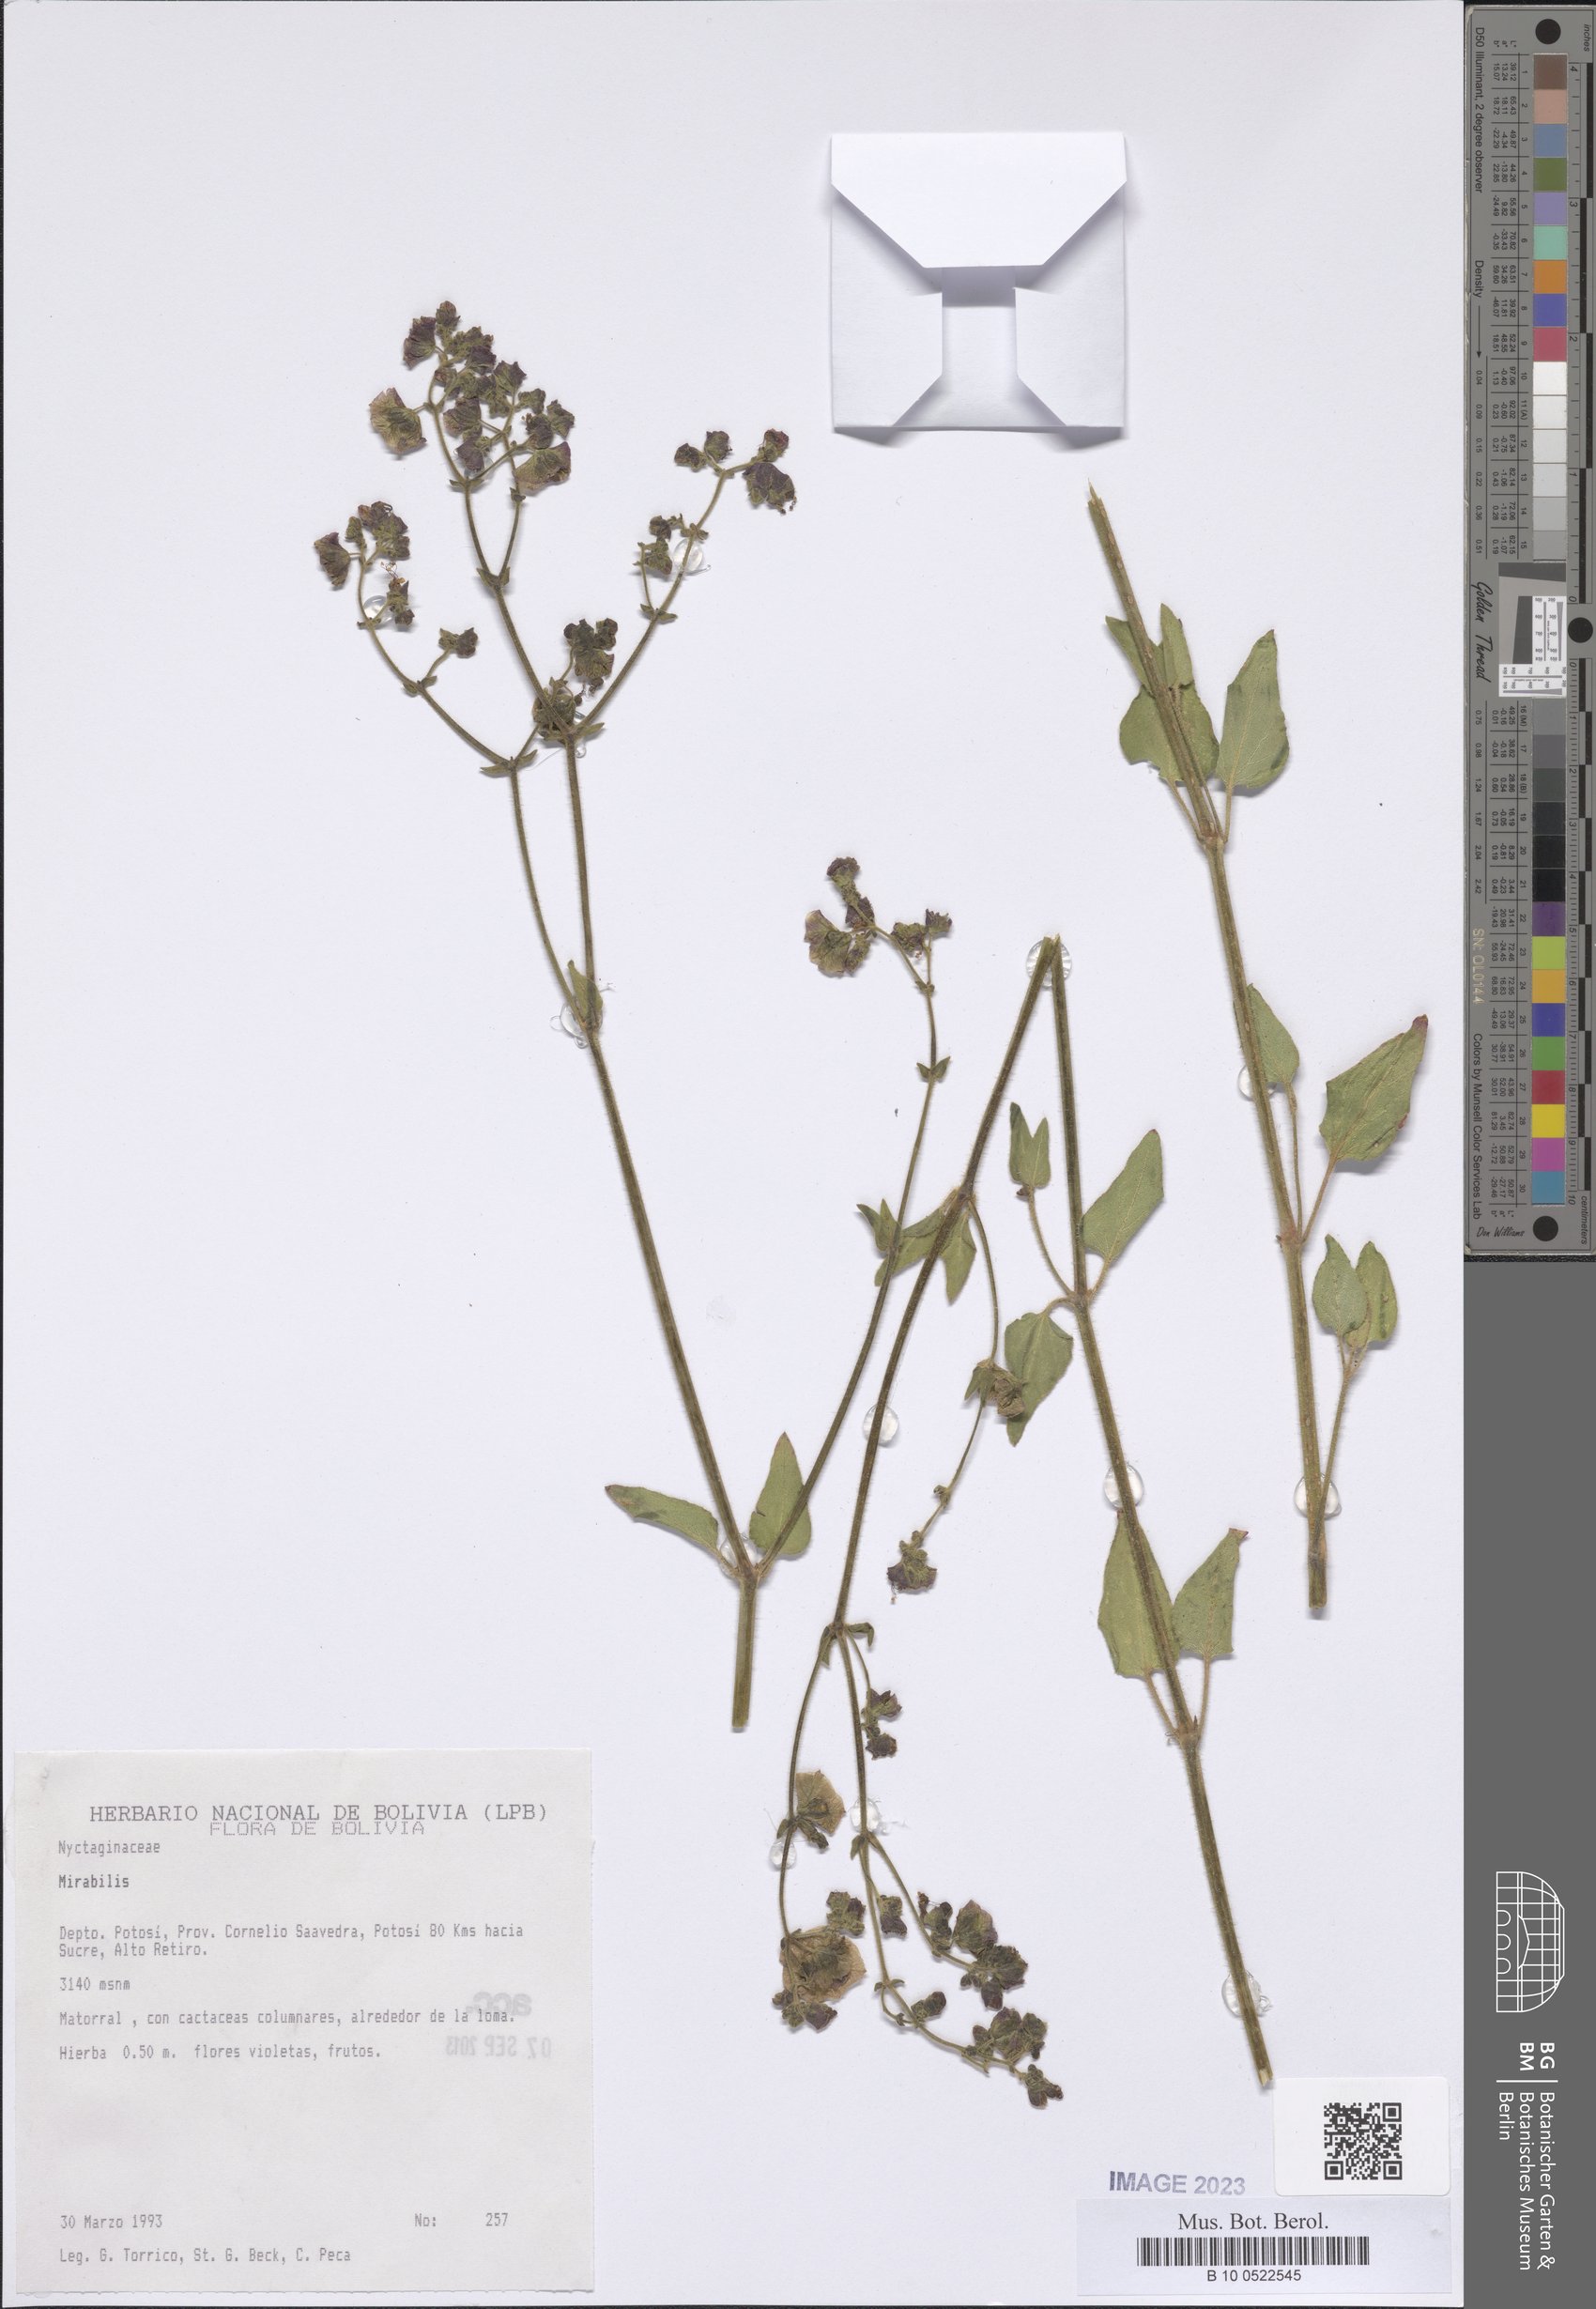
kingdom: Plantae
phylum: Tracheophyta
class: Magnoliopsida
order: Caryophyllales
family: Nyctaginaceae
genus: Mirabilis
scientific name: Mirabilis
